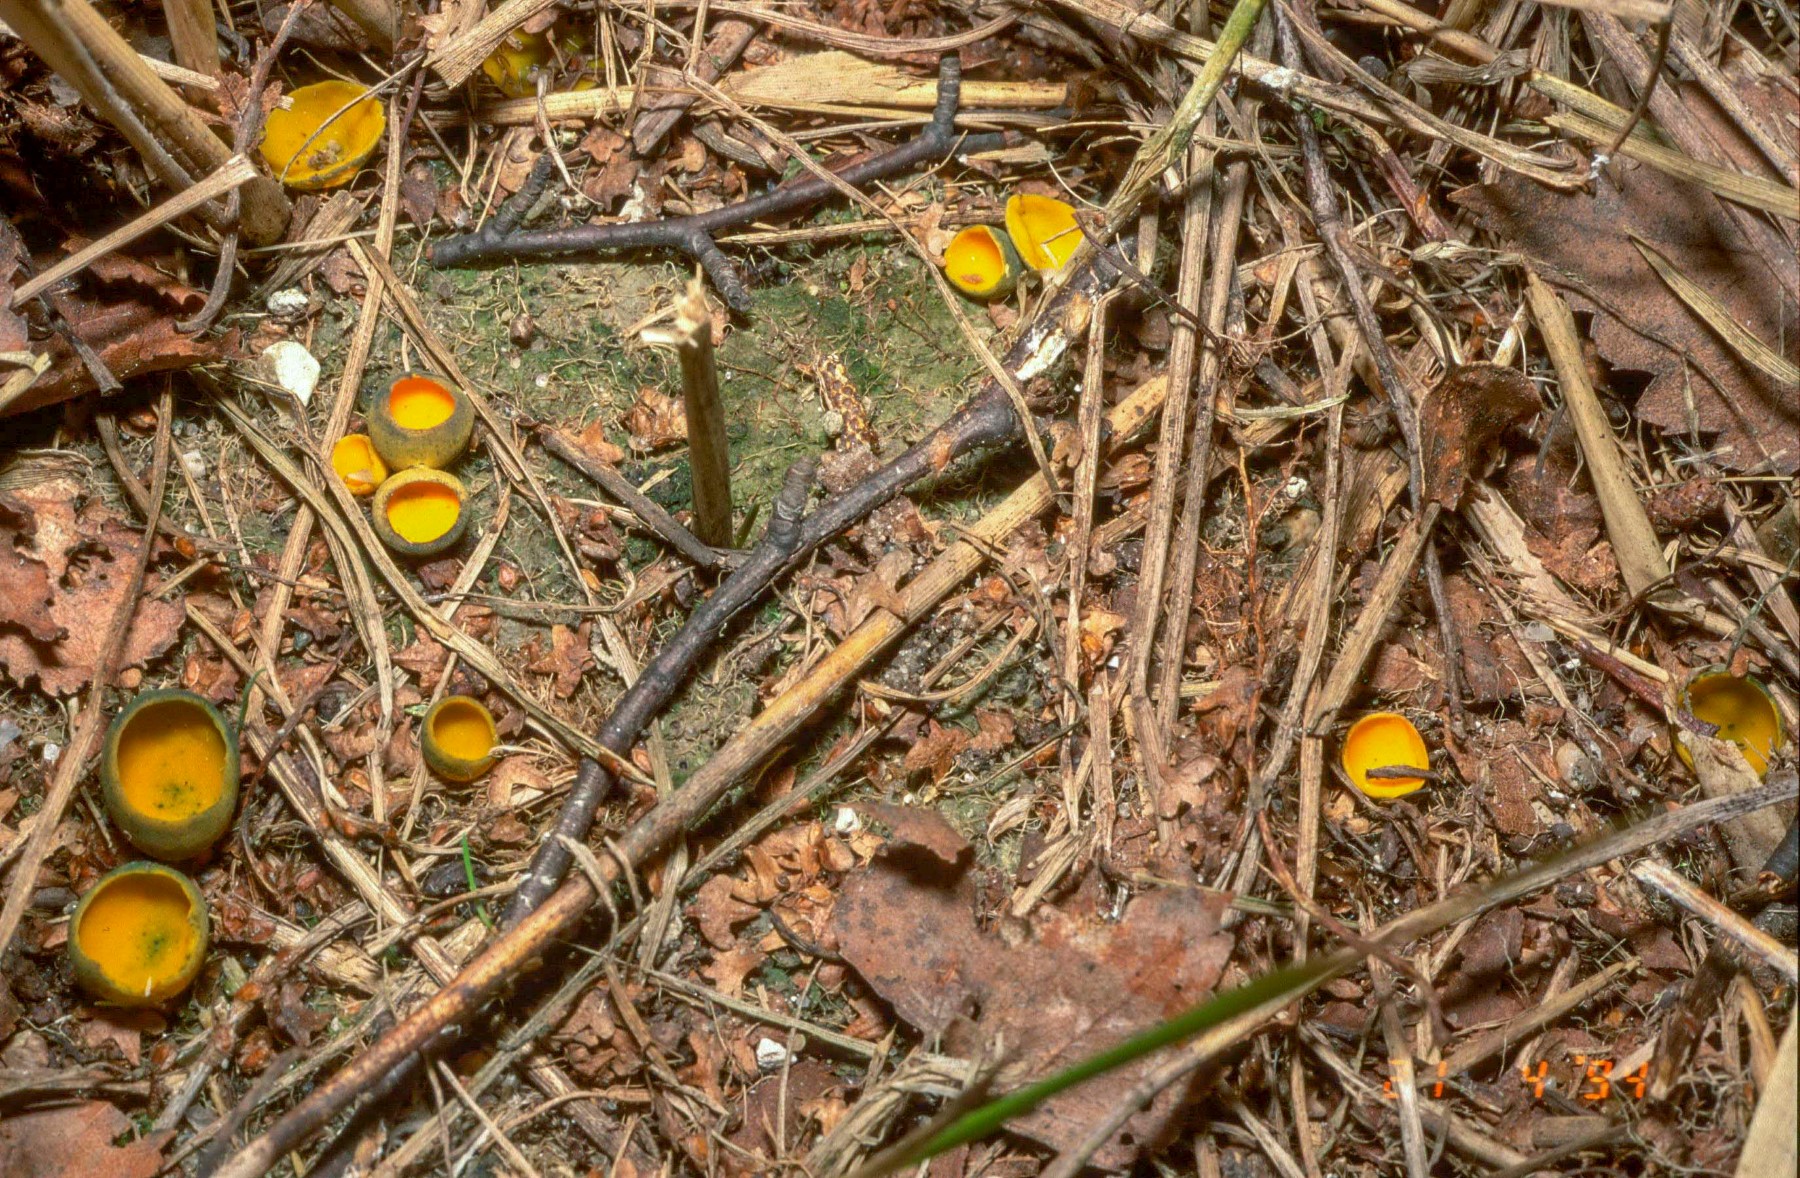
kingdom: Fungi
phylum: Ascomycota
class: Pezizomycetes
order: Pezizales
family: Caloscyphaceae
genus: Caloscypha
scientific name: Caloscypha fulgens
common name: jadebæger
